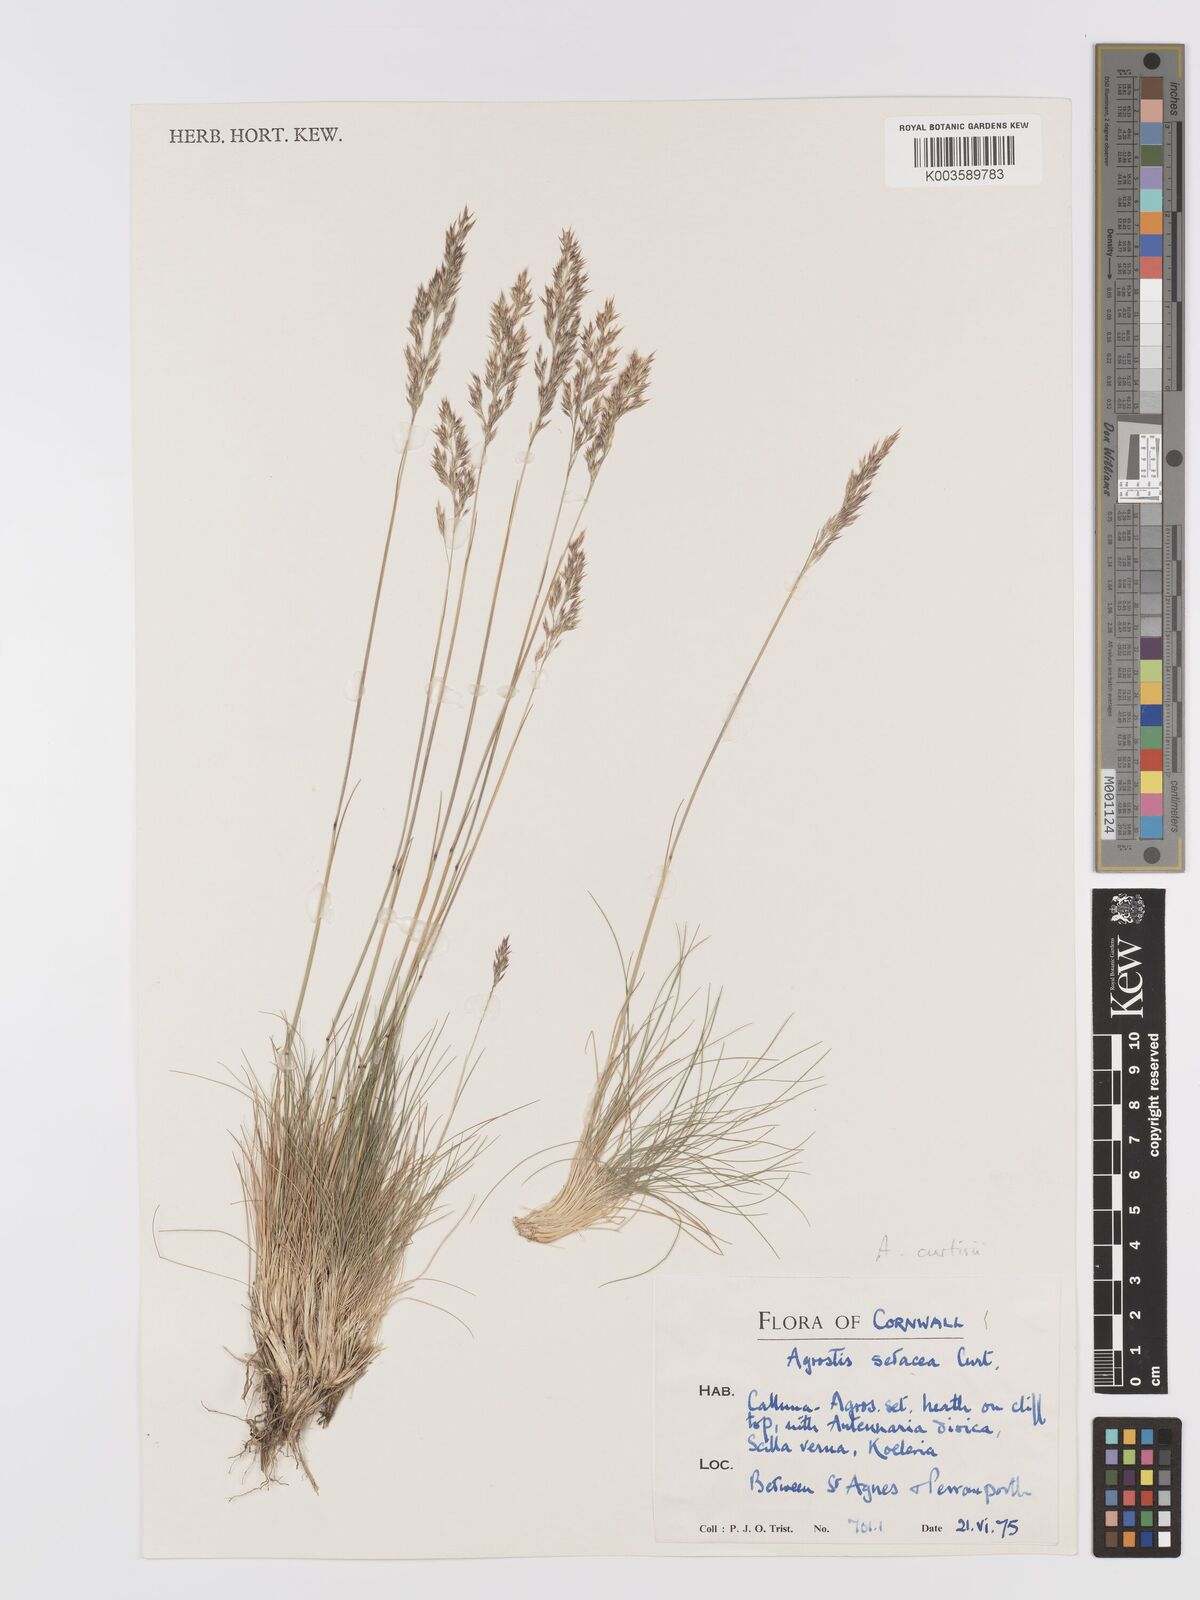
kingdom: Plantae
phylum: Tracheophyta
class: Liliopsida
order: Poales
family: Poaceae
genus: Alpagrostis
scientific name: Alpagrostis setacea
